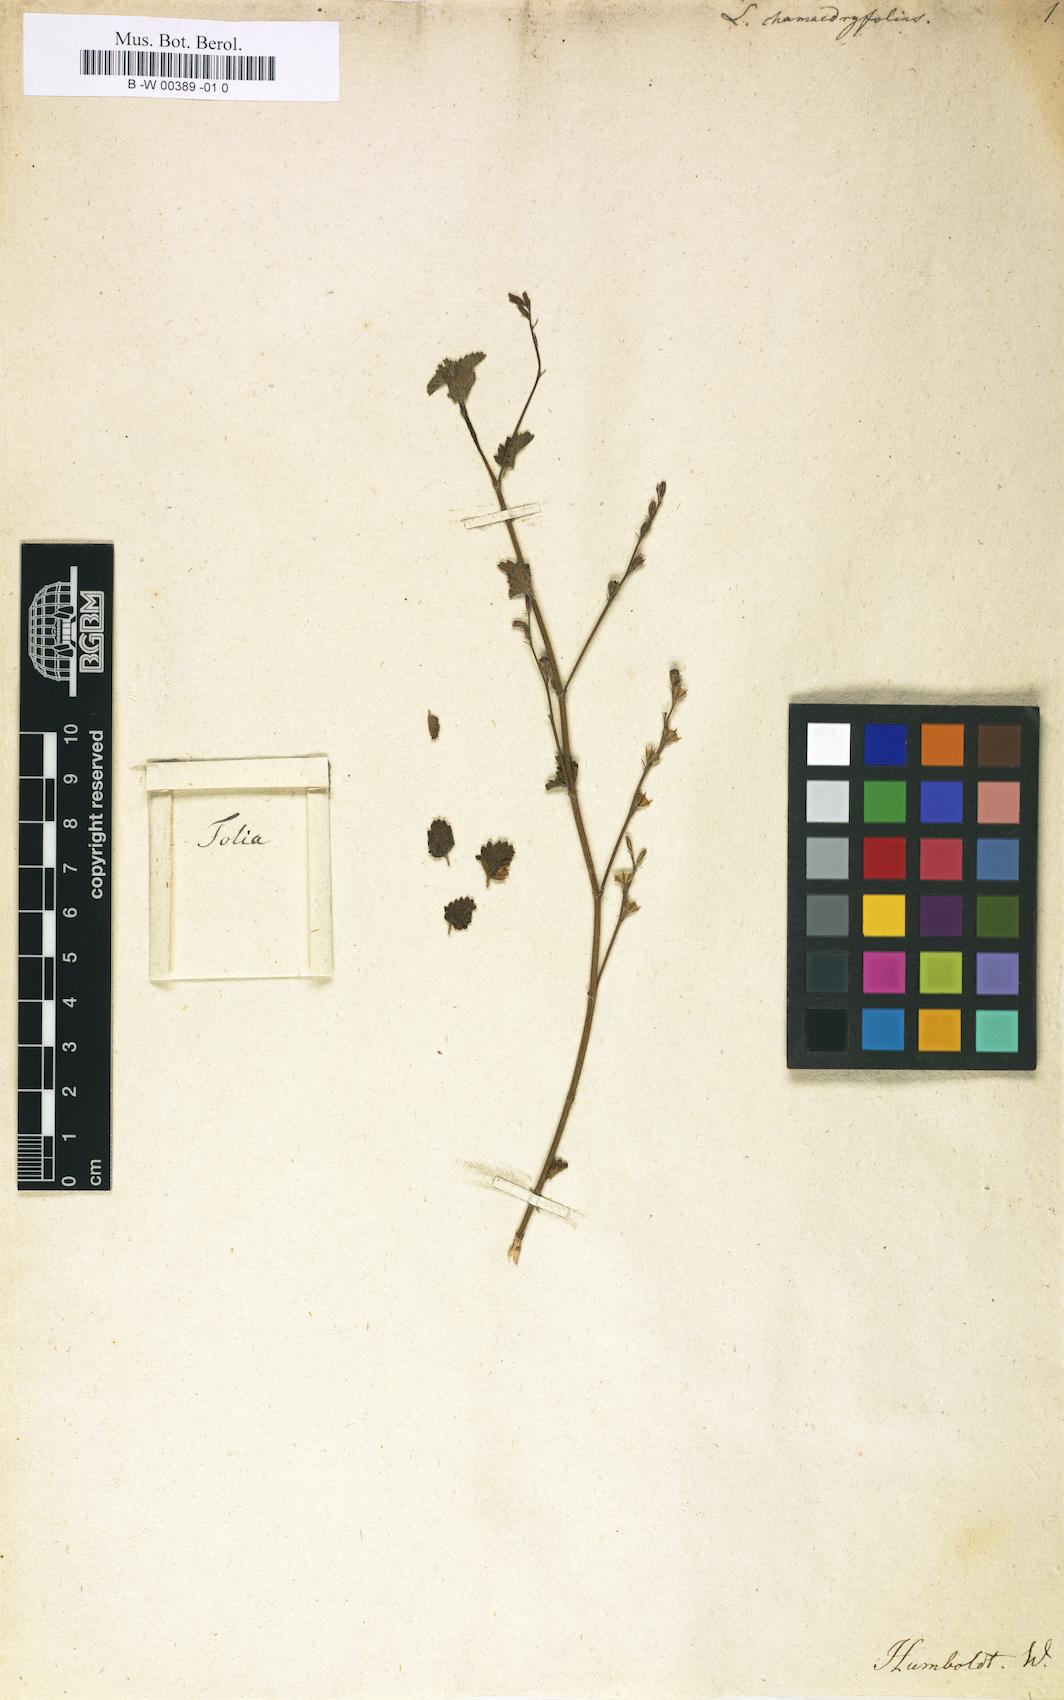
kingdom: Plantae
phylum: Tracheophyta
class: Magnoliopsida
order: Lamiales
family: Verbenaceae
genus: Tamonea
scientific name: Tamonea spicata
